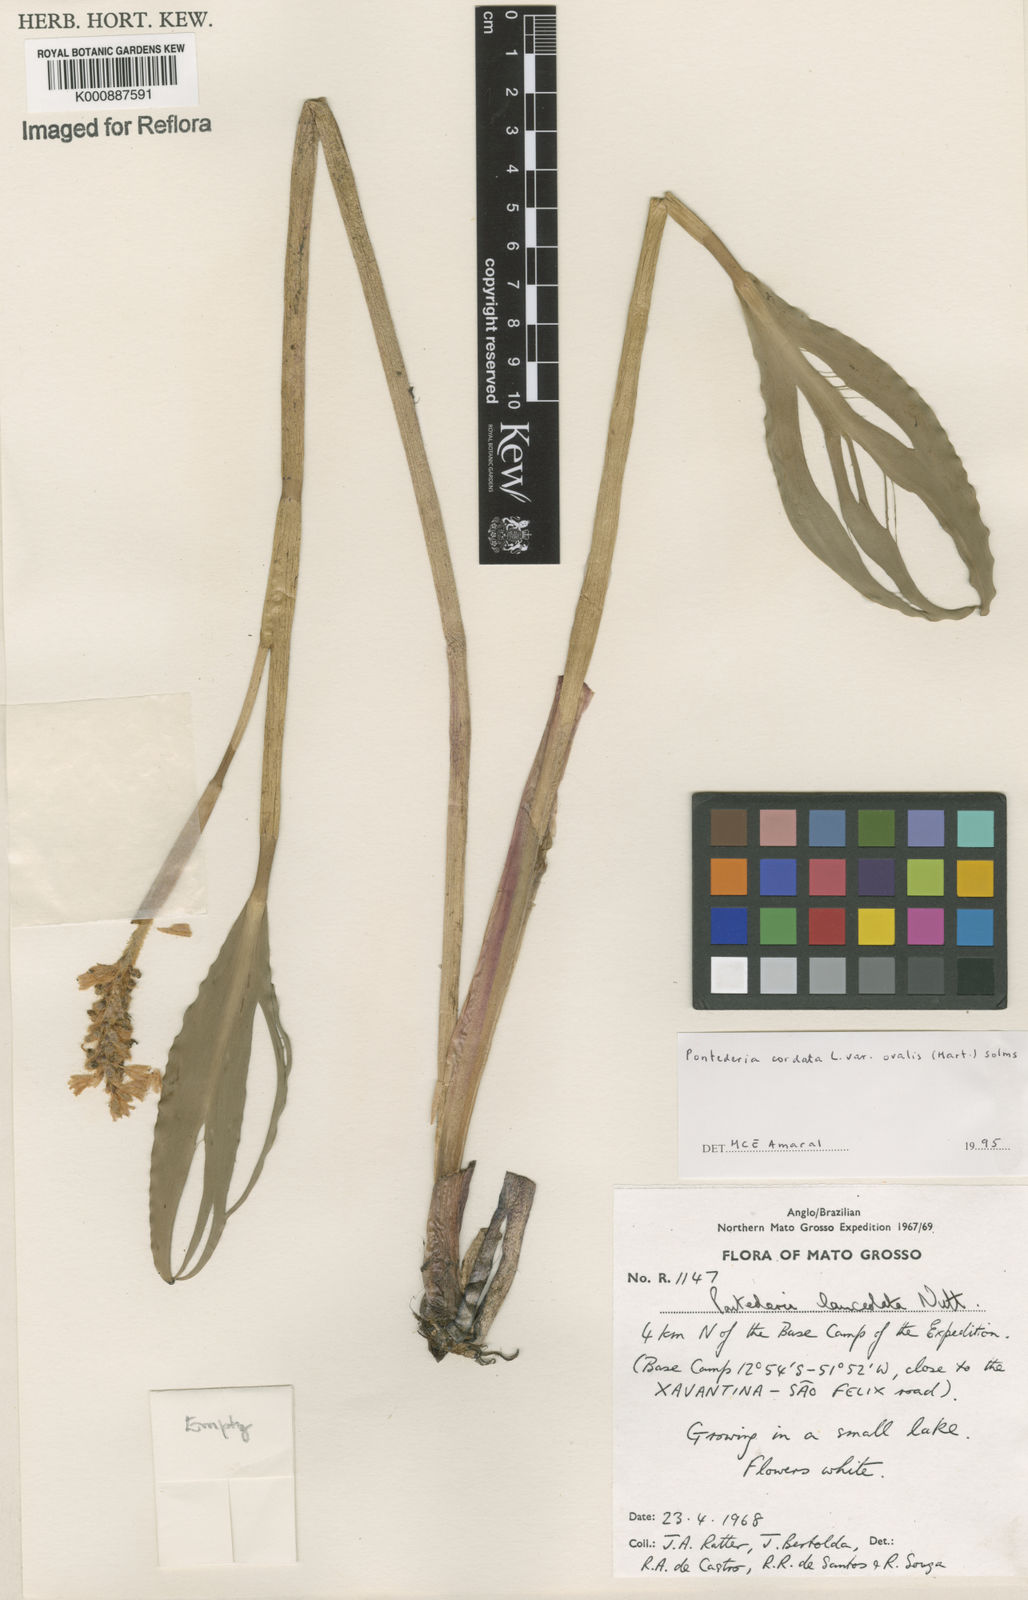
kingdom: Plantae
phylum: Tracheophyta
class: Liliopsida
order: Commelinales
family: Pontederiaceae
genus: Pontederia
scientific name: Pontederia cordata
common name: Pickerelweed
